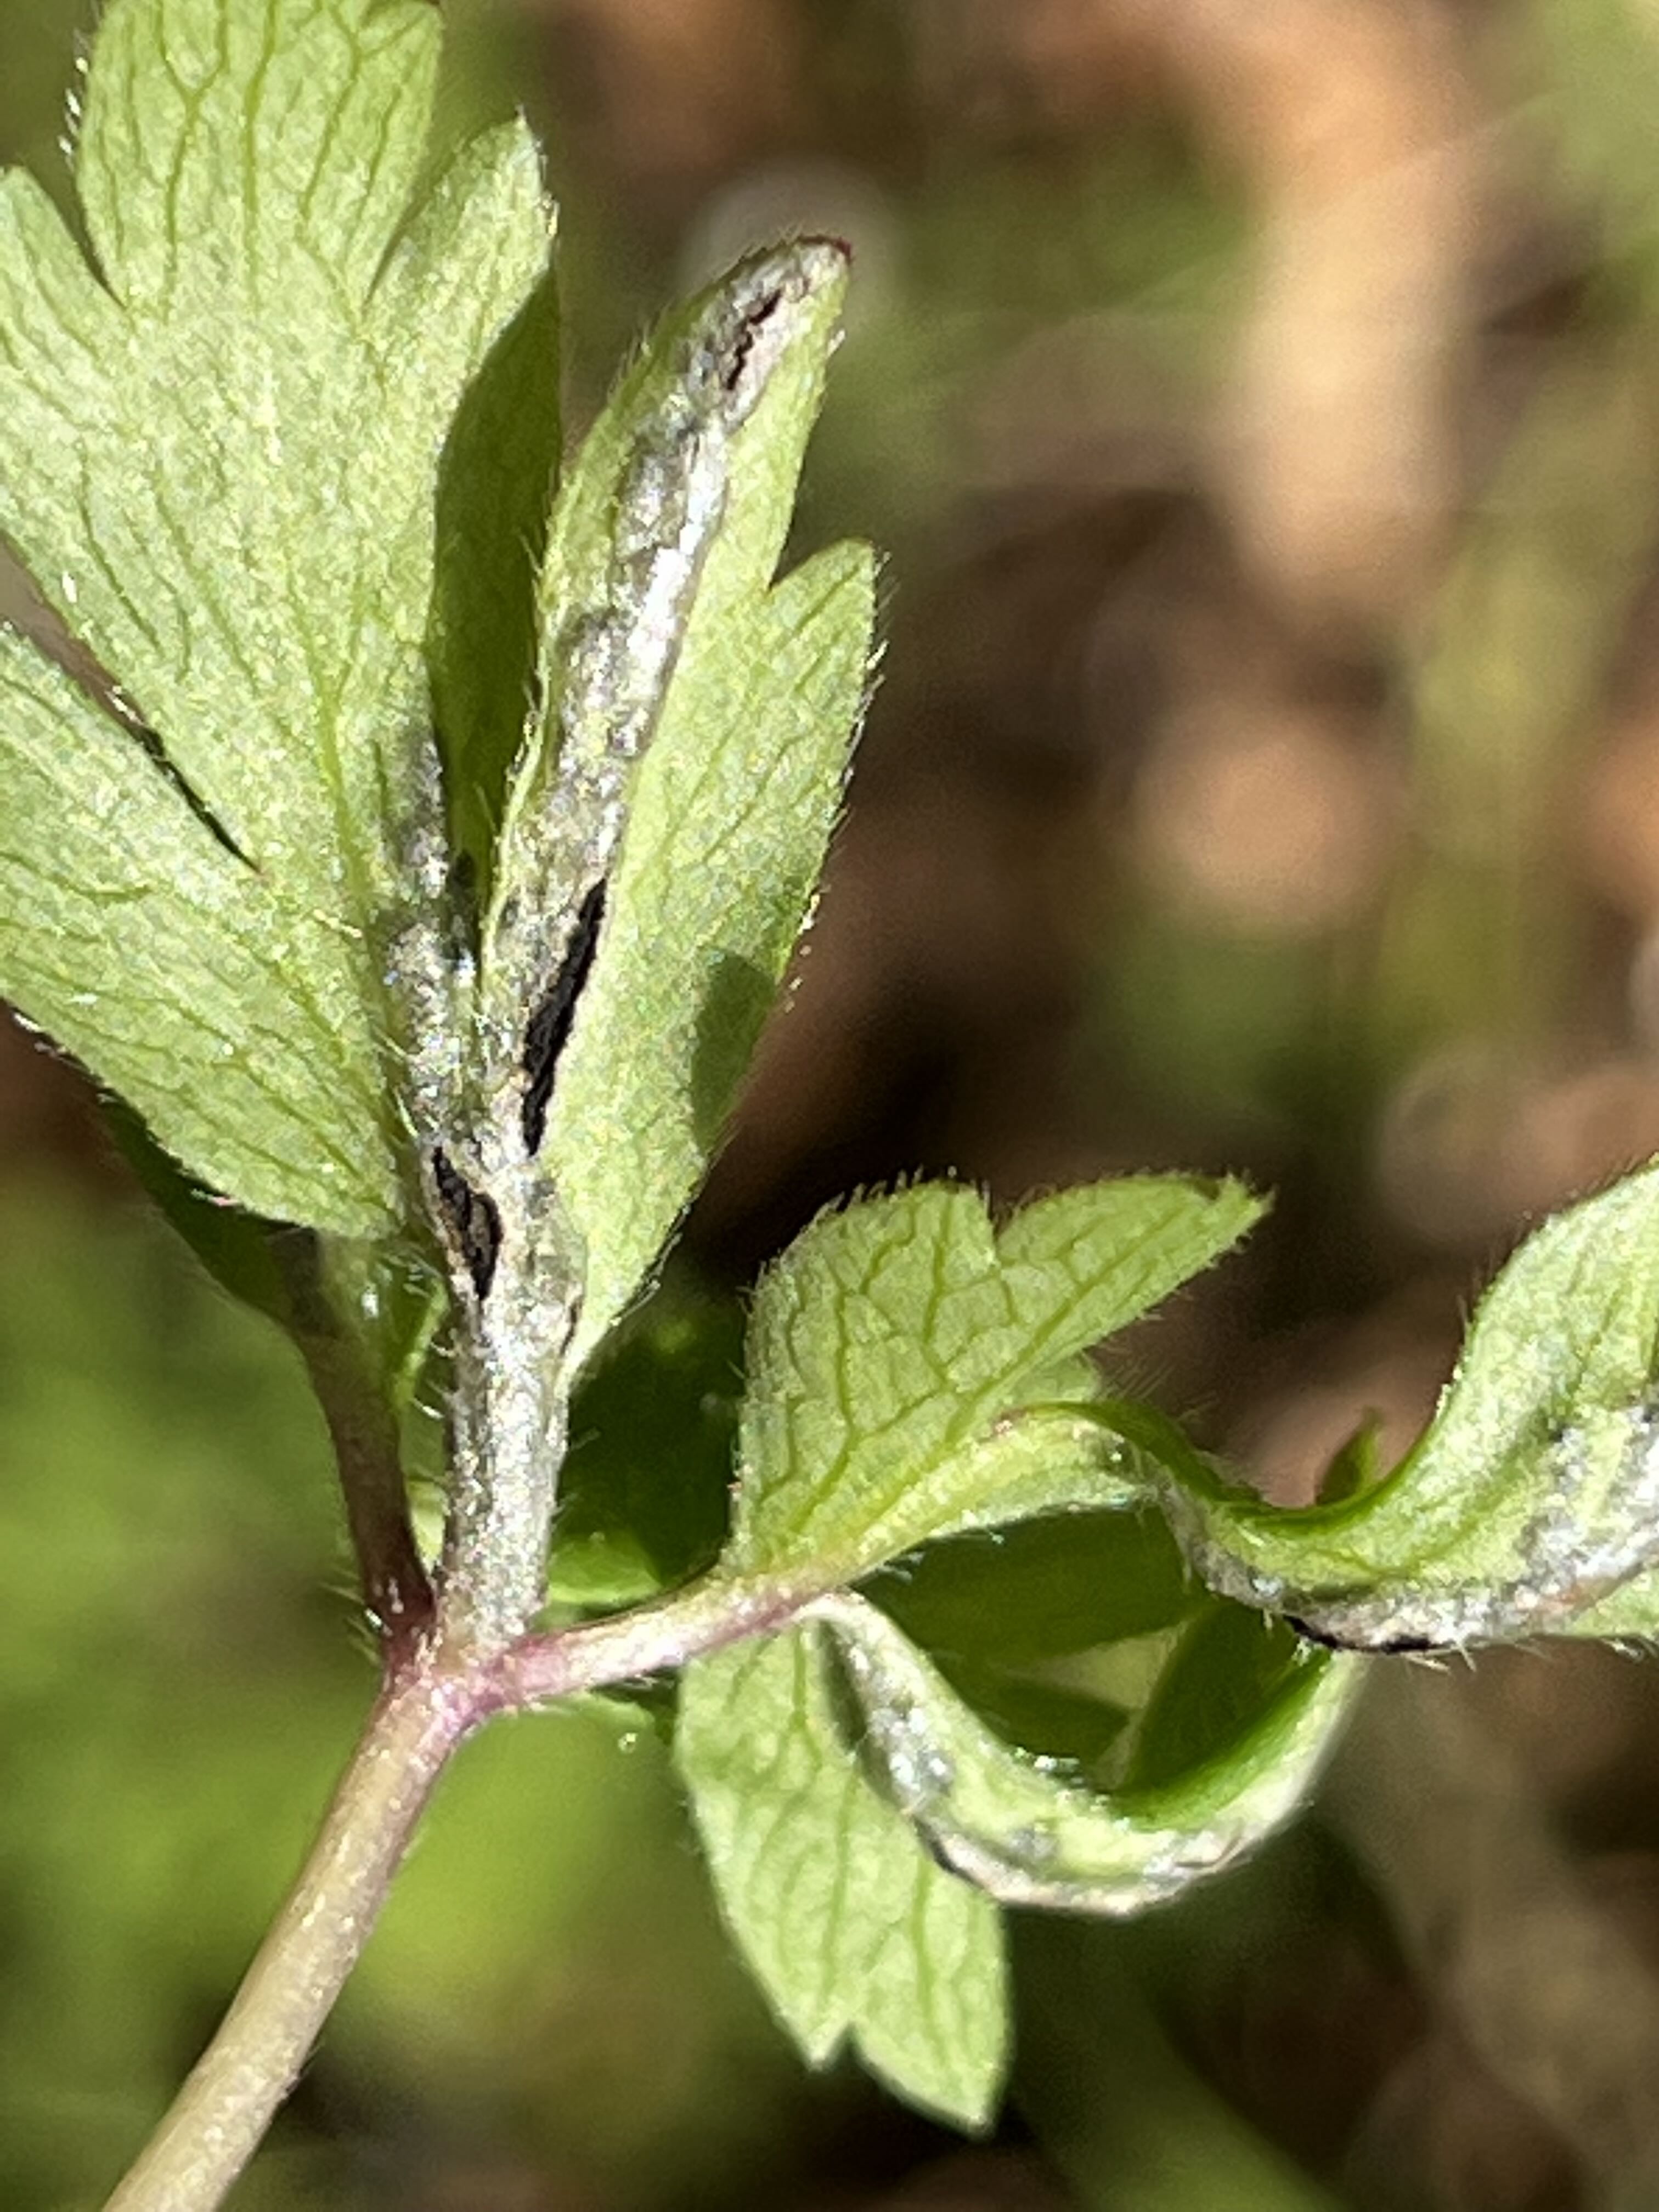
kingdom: Fungi
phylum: Basidiomycota
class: Ustilaginomycetes
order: Urocystidales
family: Urocystidaceae
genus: Urocystis
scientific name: Urocystis anemones
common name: anemone-brand
